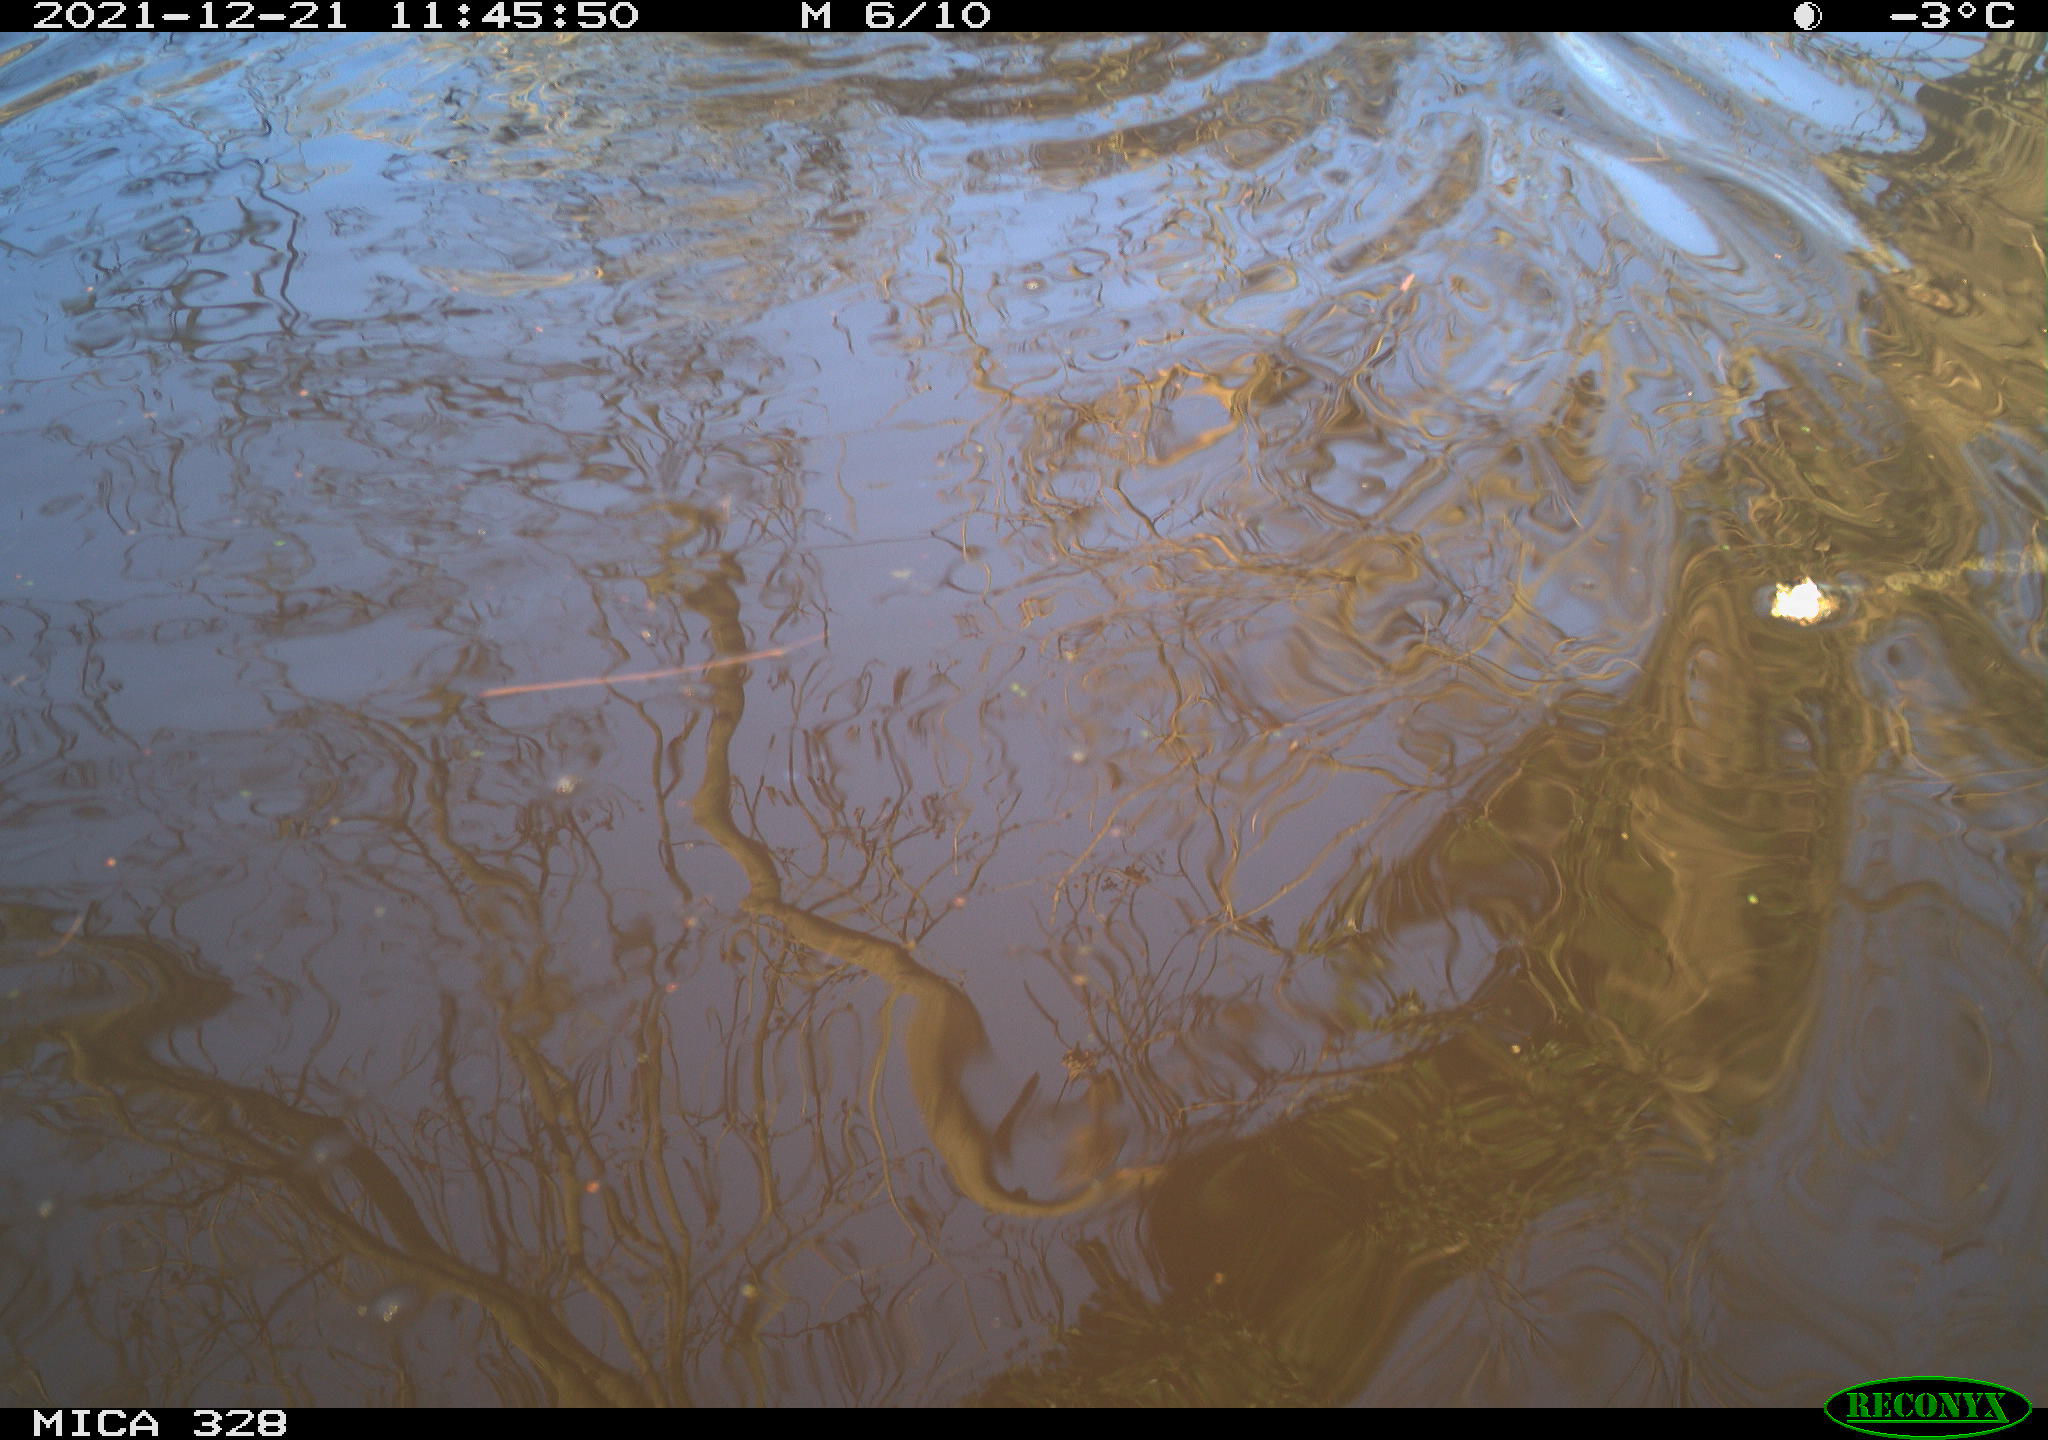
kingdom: Animalia
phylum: Chordata
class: Mammalia
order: Rodentia
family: Cricetidae
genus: Ondatra
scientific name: Ondatra zibethicus
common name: Muskrat
